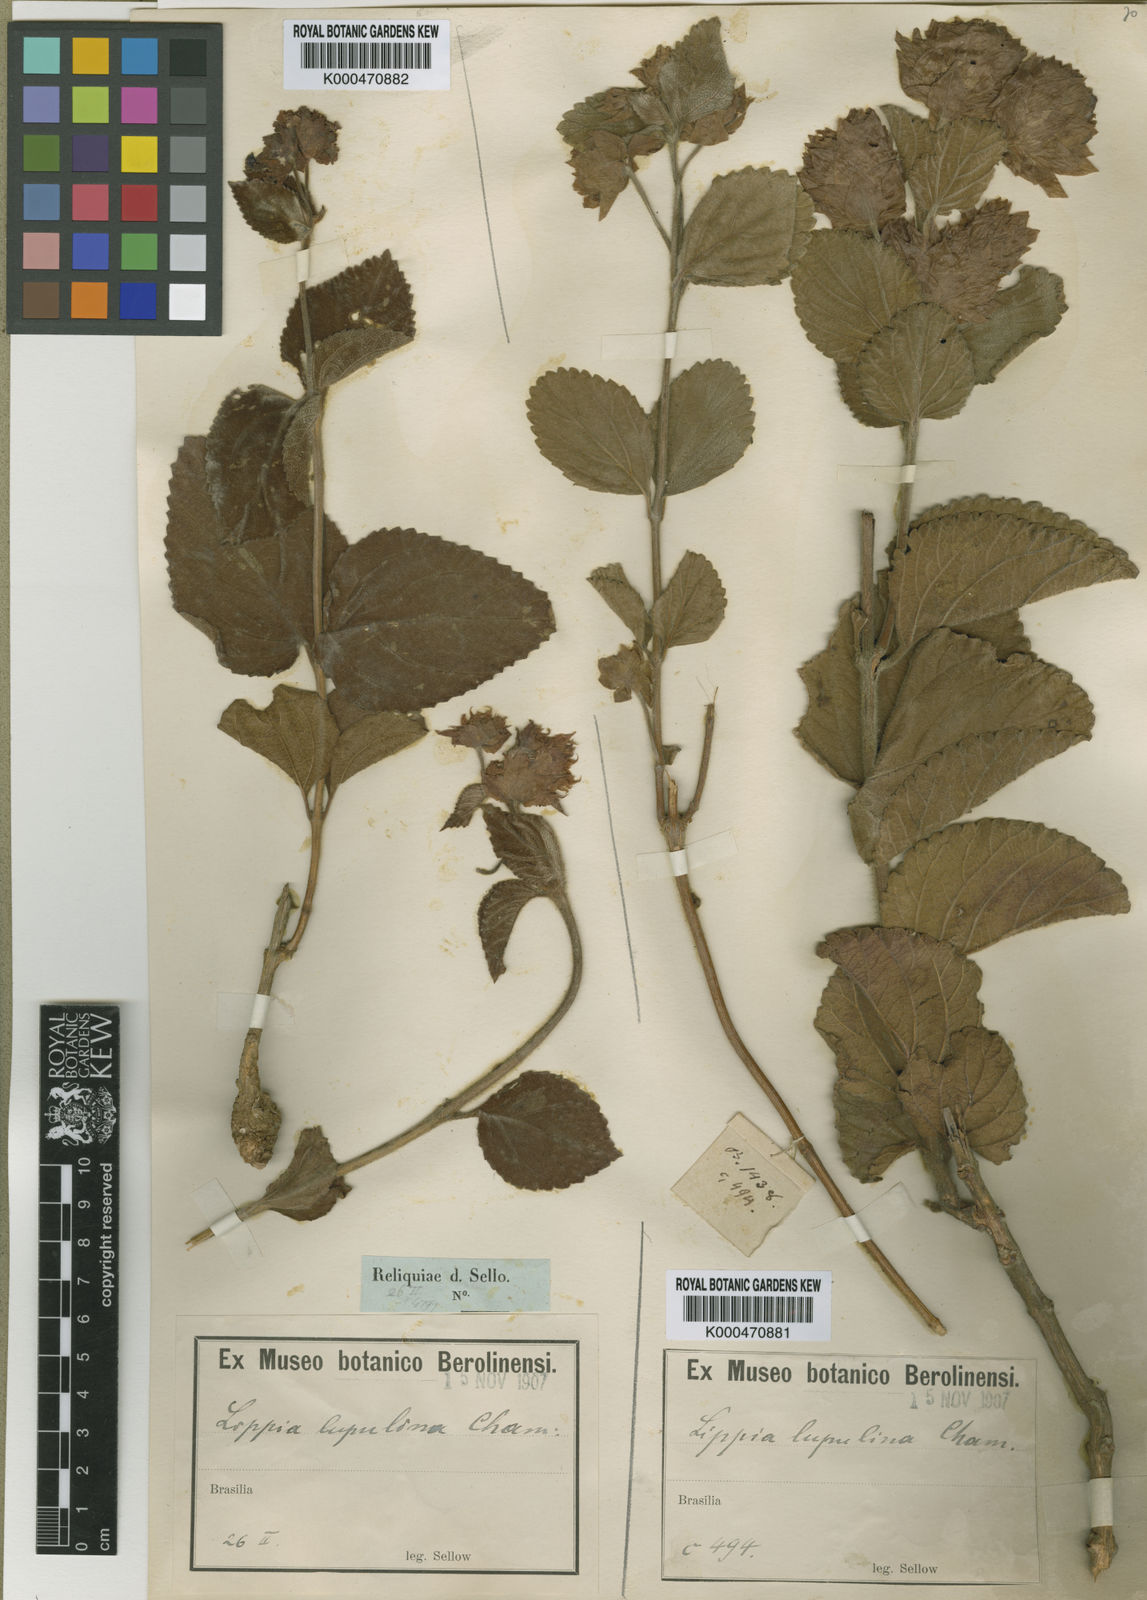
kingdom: Plantae
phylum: Tracheophyta
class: Magnoliopsida
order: Lamiales
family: Verbenaceae
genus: Lippia
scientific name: Lippia lupulina
